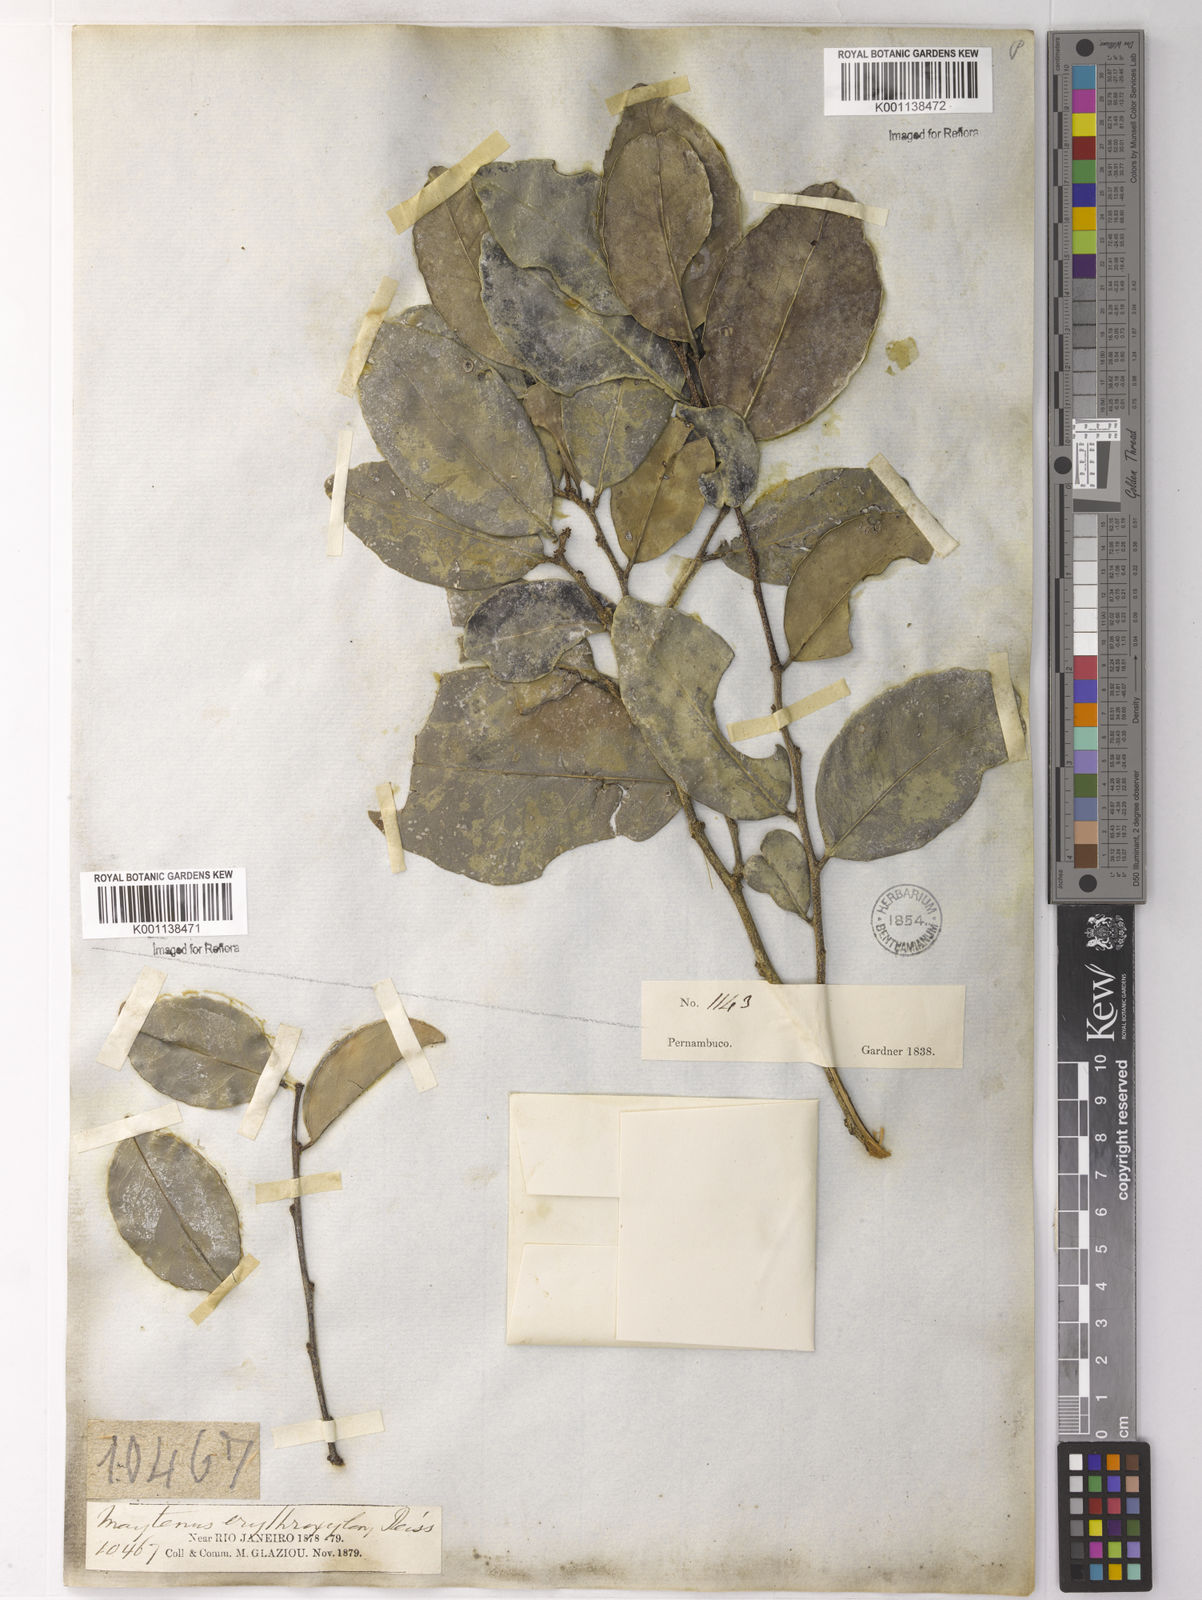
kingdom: Plantae
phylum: Tracheophyta
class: Magnoliopsida
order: Celastrales
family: Celastraceae
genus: Monteverdia
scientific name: Monteverdia erythroxylon
